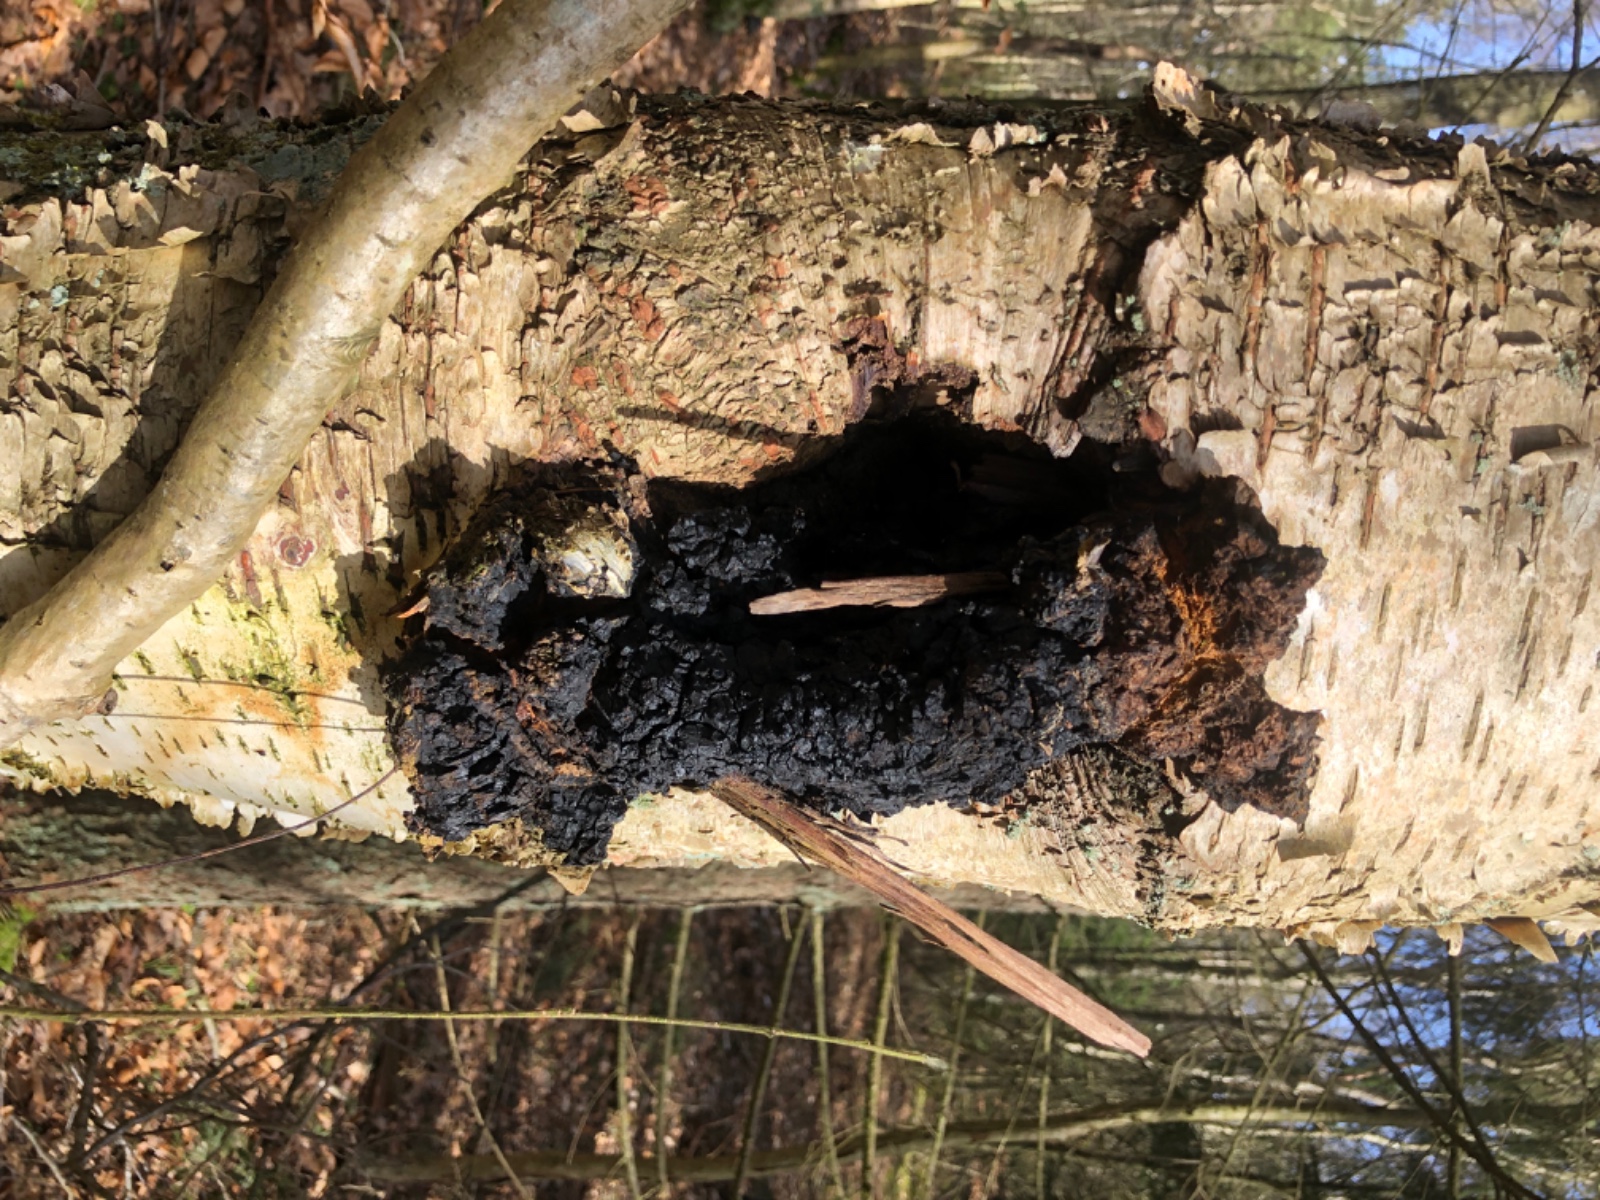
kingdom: Fungi
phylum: Basidiomycota
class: Agaricomycetes
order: Hymenochaetales
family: Hymenochaetaceae
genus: Inonotus
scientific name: Inonotus obliquus
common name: birke-spejlporesvamp
